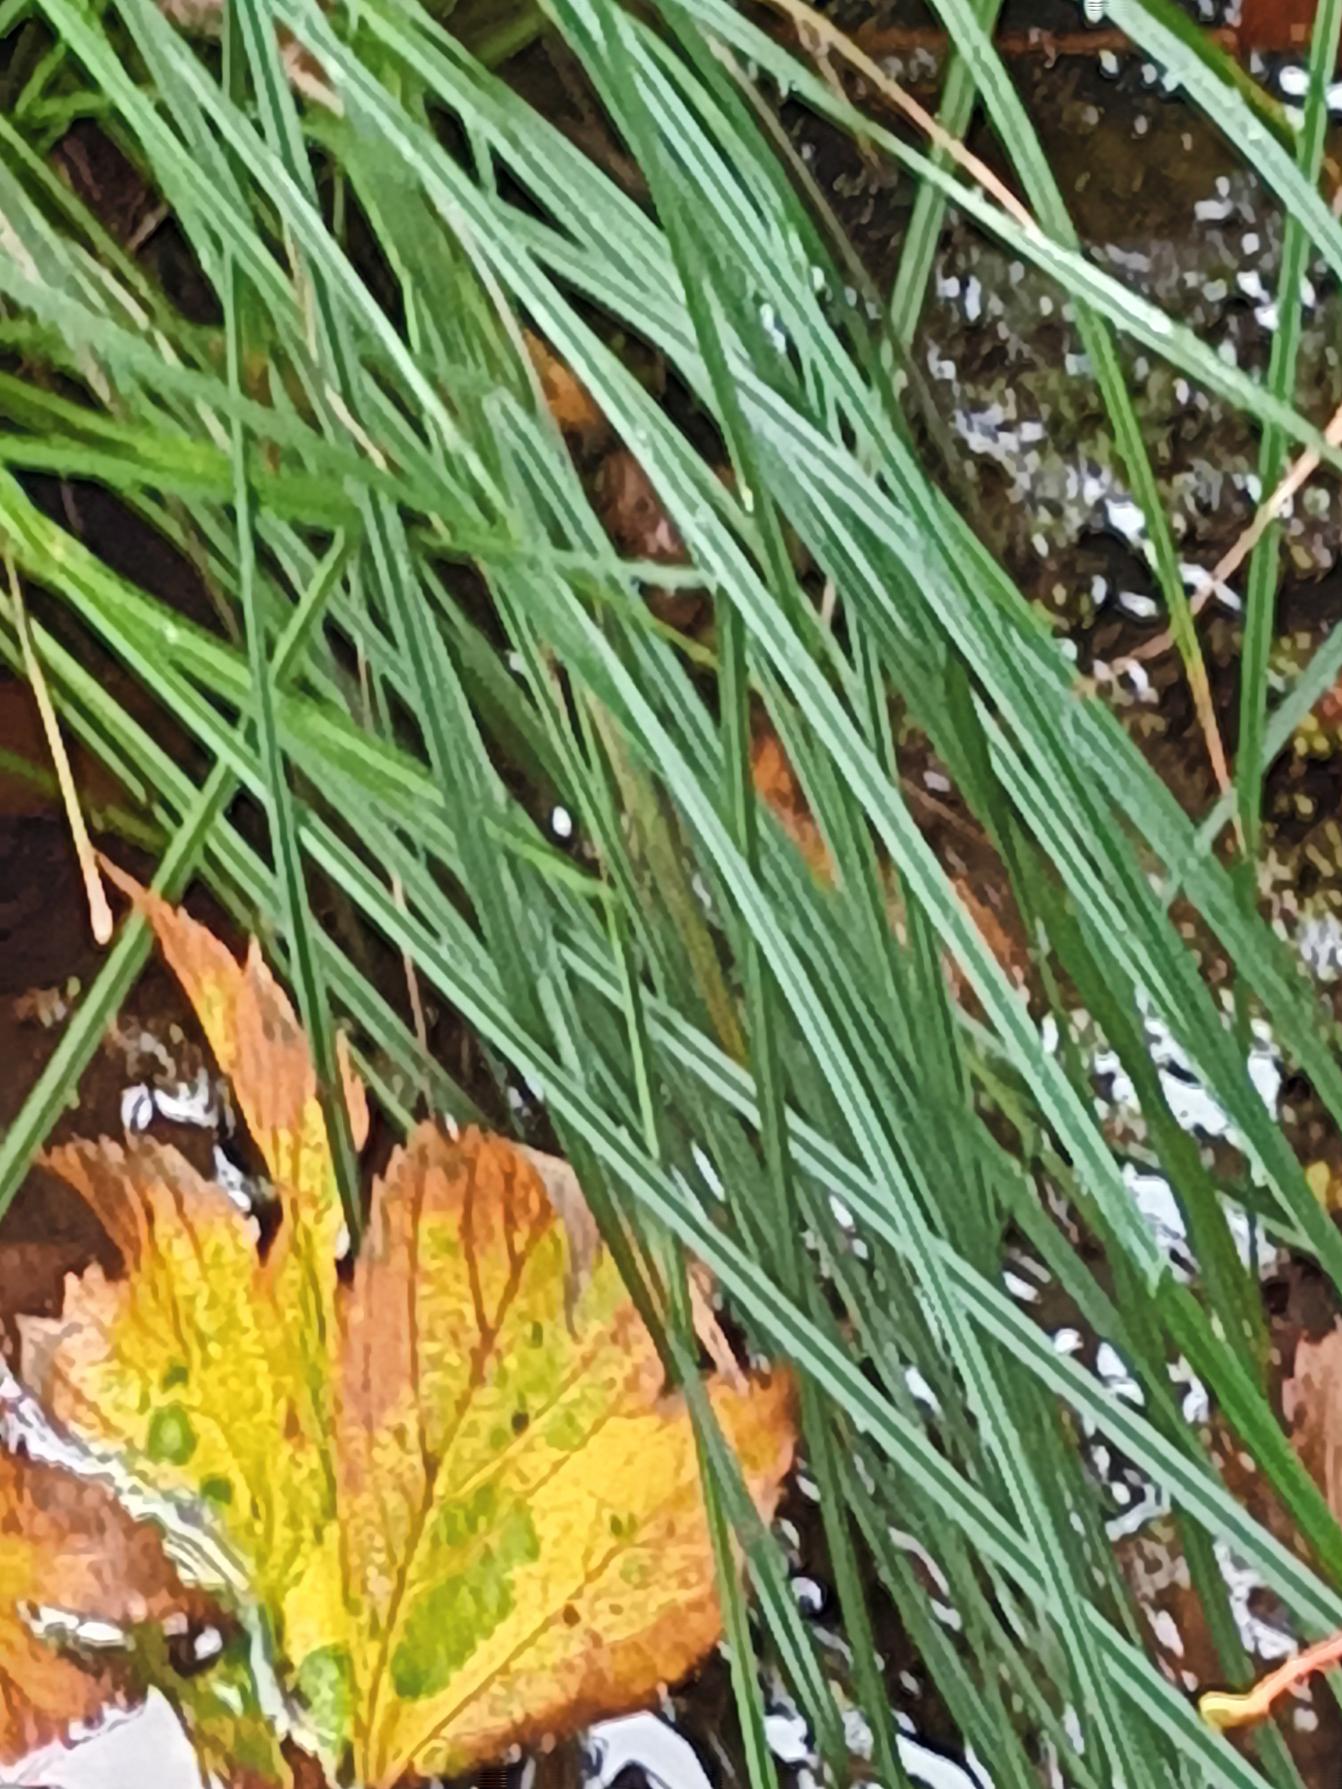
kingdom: Plantae
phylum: Tracheophyta
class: Liliopsida
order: Poales
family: Cyperaceae
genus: Carex
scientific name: Carex elata
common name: Stiv star
